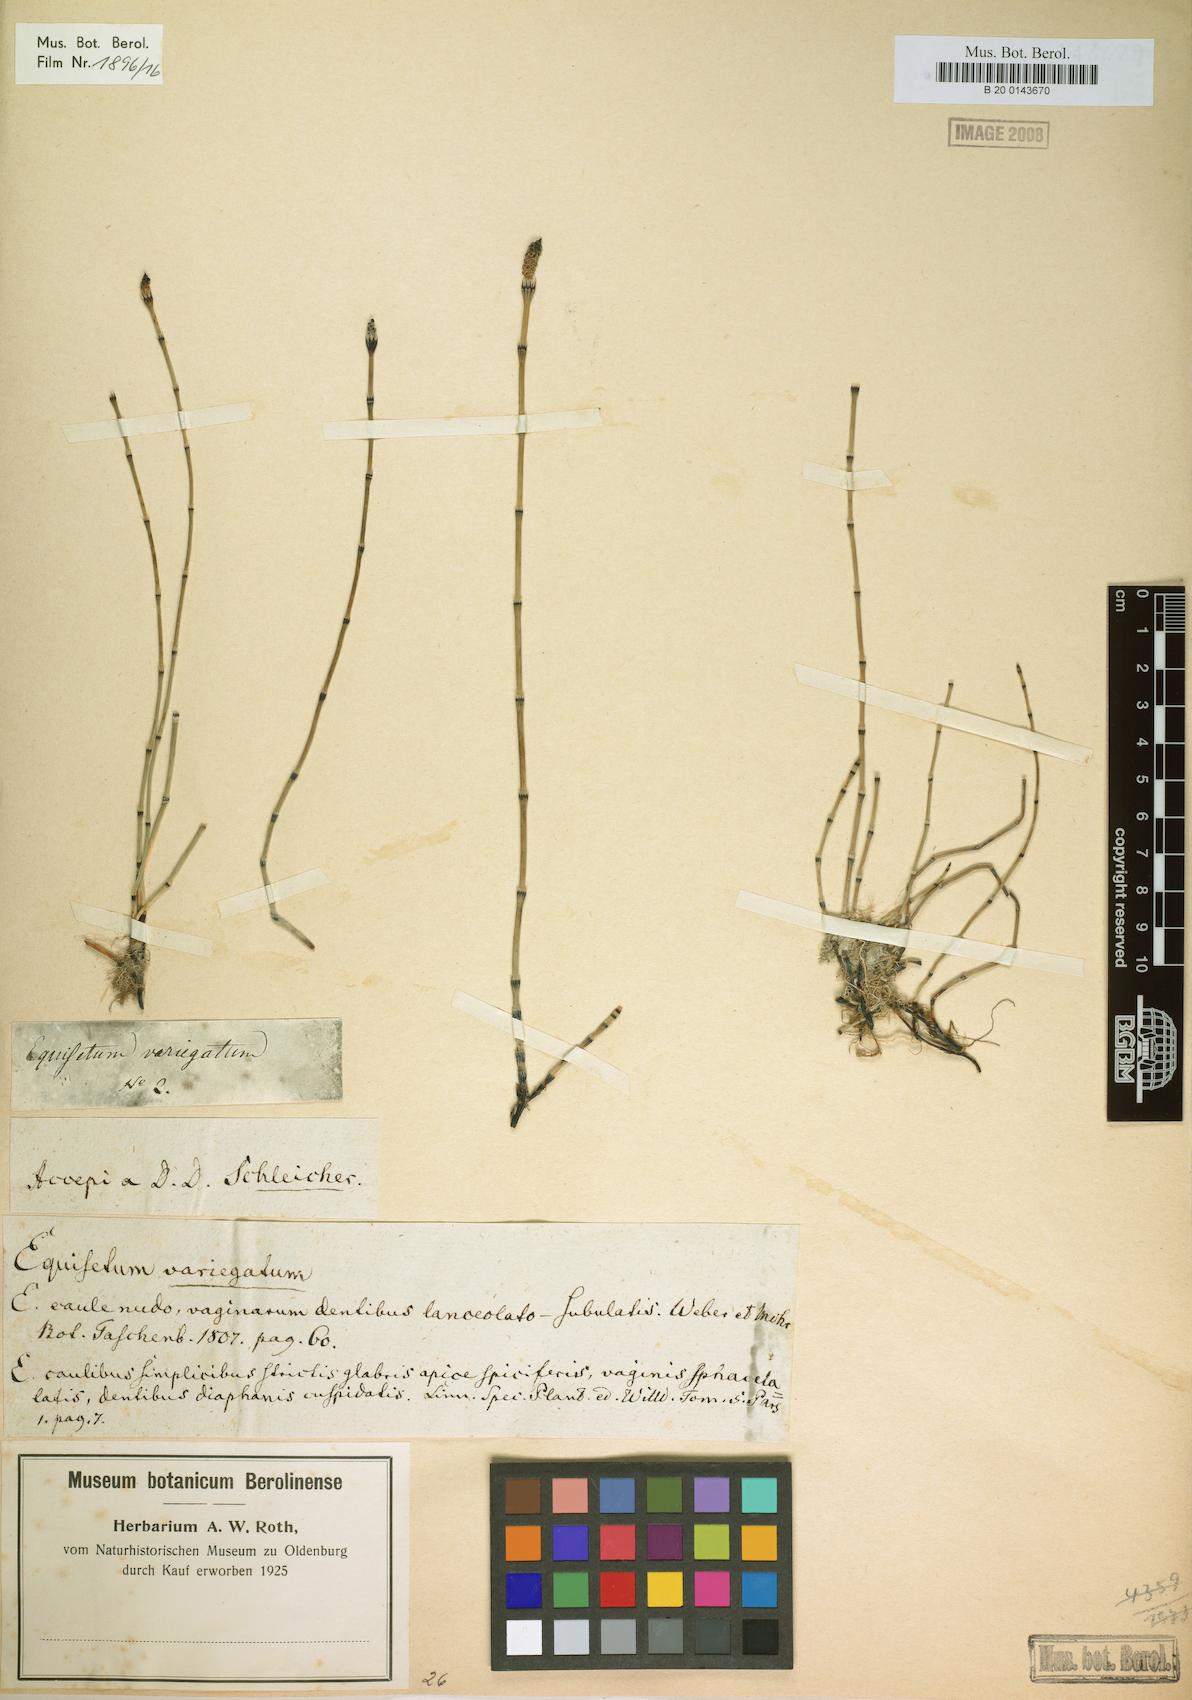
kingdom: Plantae
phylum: Tracheophyta
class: Polypodiopsida
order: Equisetales
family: Equisetaceae
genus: Equisetum
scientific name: Equisetum variegatum
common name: Variegated horsetail
